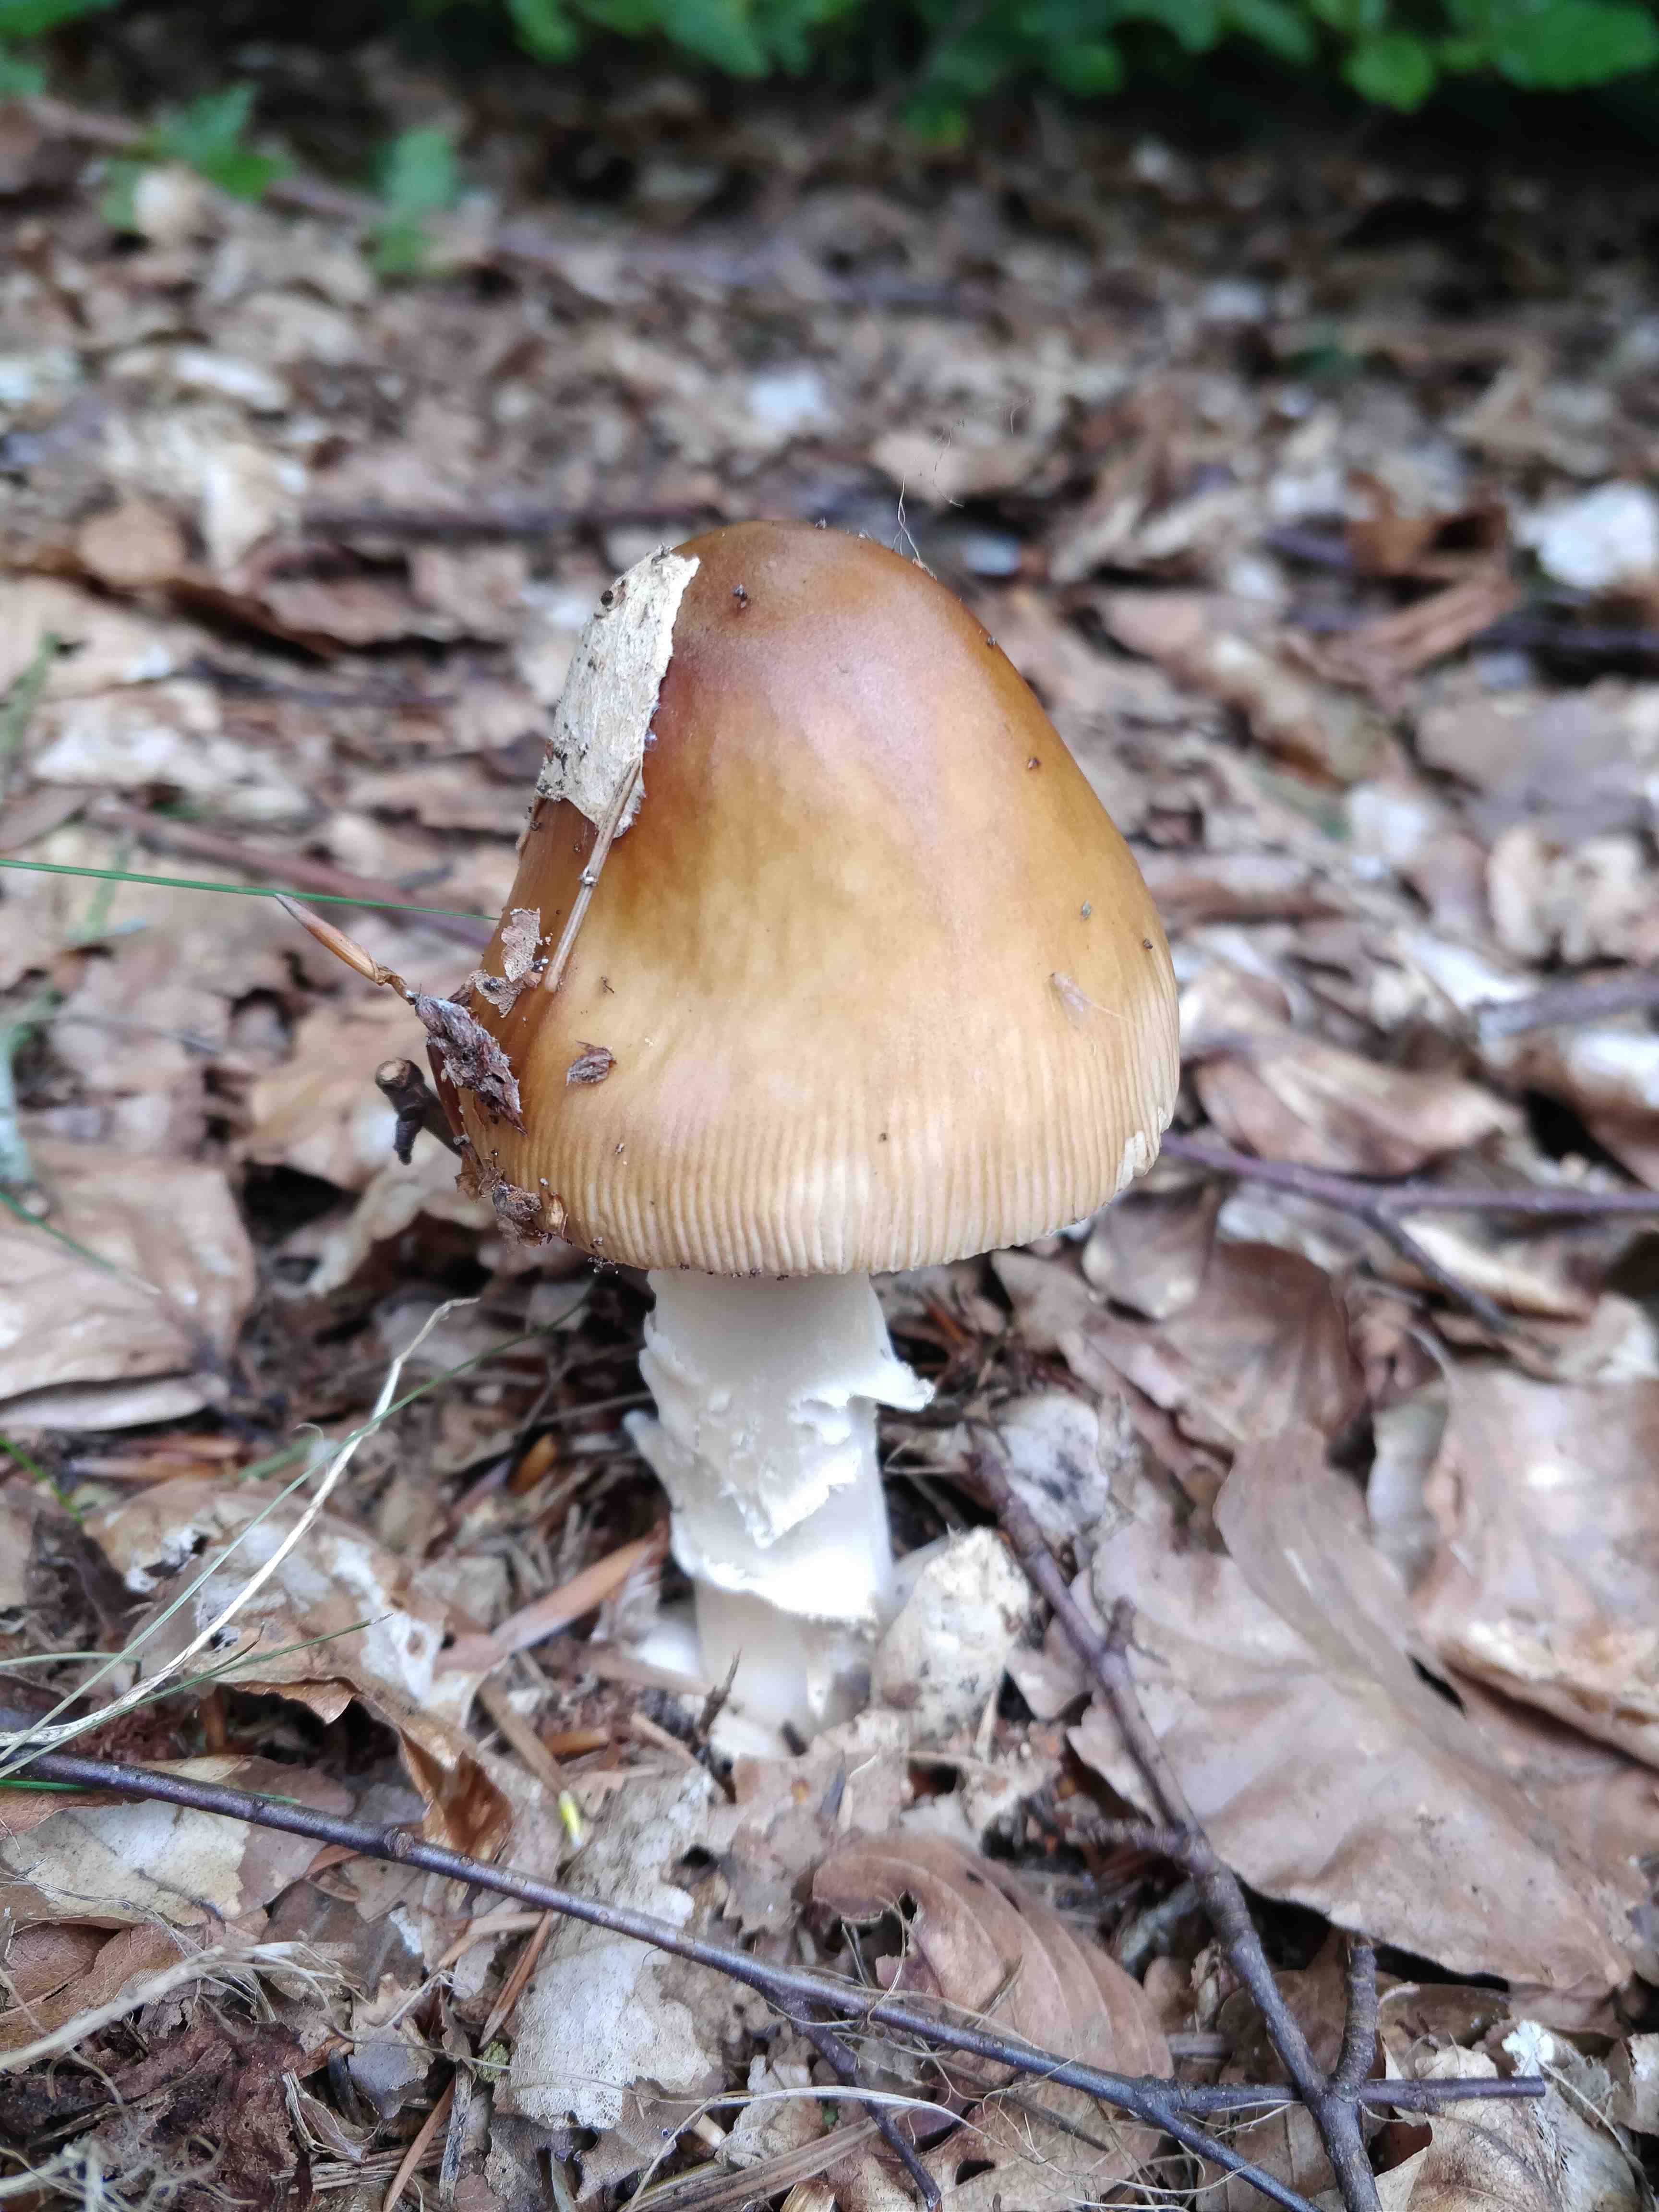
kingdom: Fungi
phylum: Basidiomycota
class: Agaricomycetes
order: Agaricales
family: Amanitaceae
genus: Amanita
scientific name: Amanita fulva
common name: brun kam-fluesvamp
